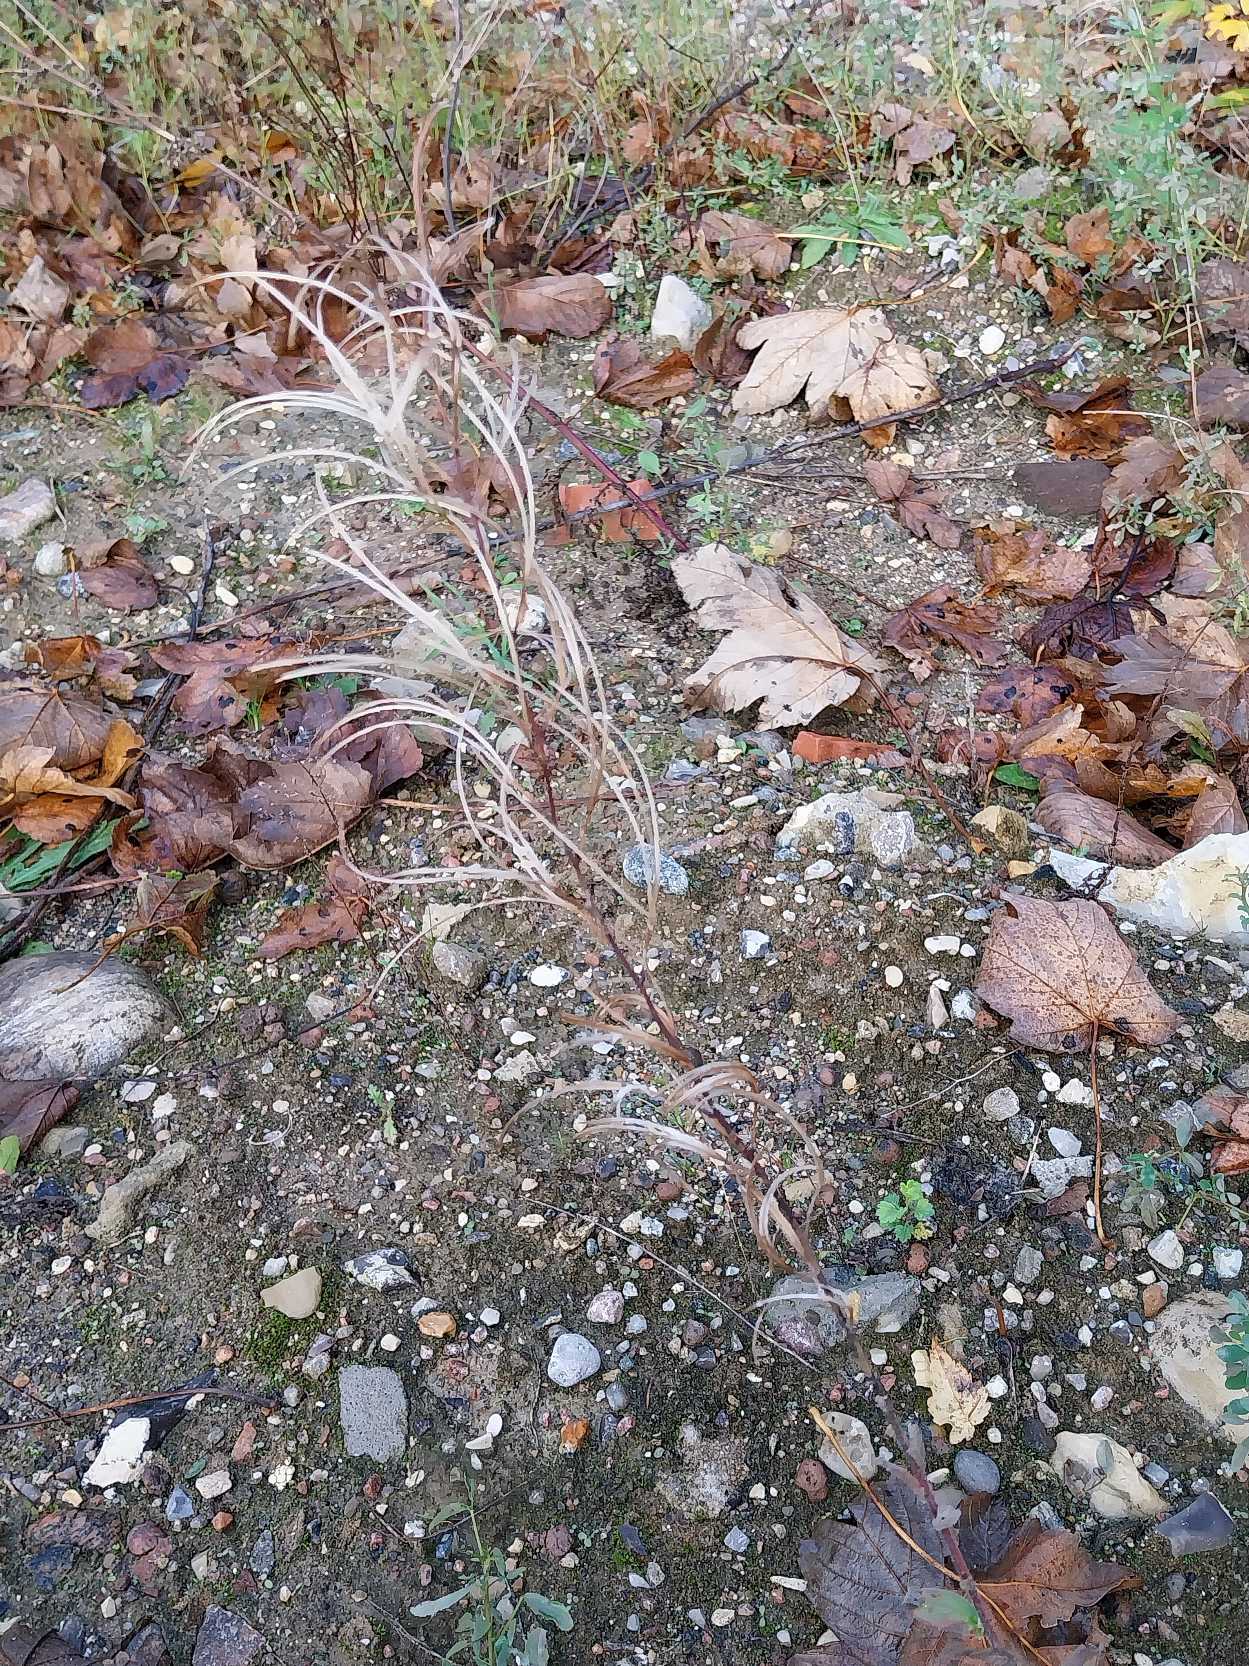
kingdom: Plantae
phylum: Tracheophyta
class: Magnoliopsida
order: Myrtales
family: Onagraceae
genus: Epilobium
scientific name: Epilobium parviflorum
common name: Dunet dueurt
